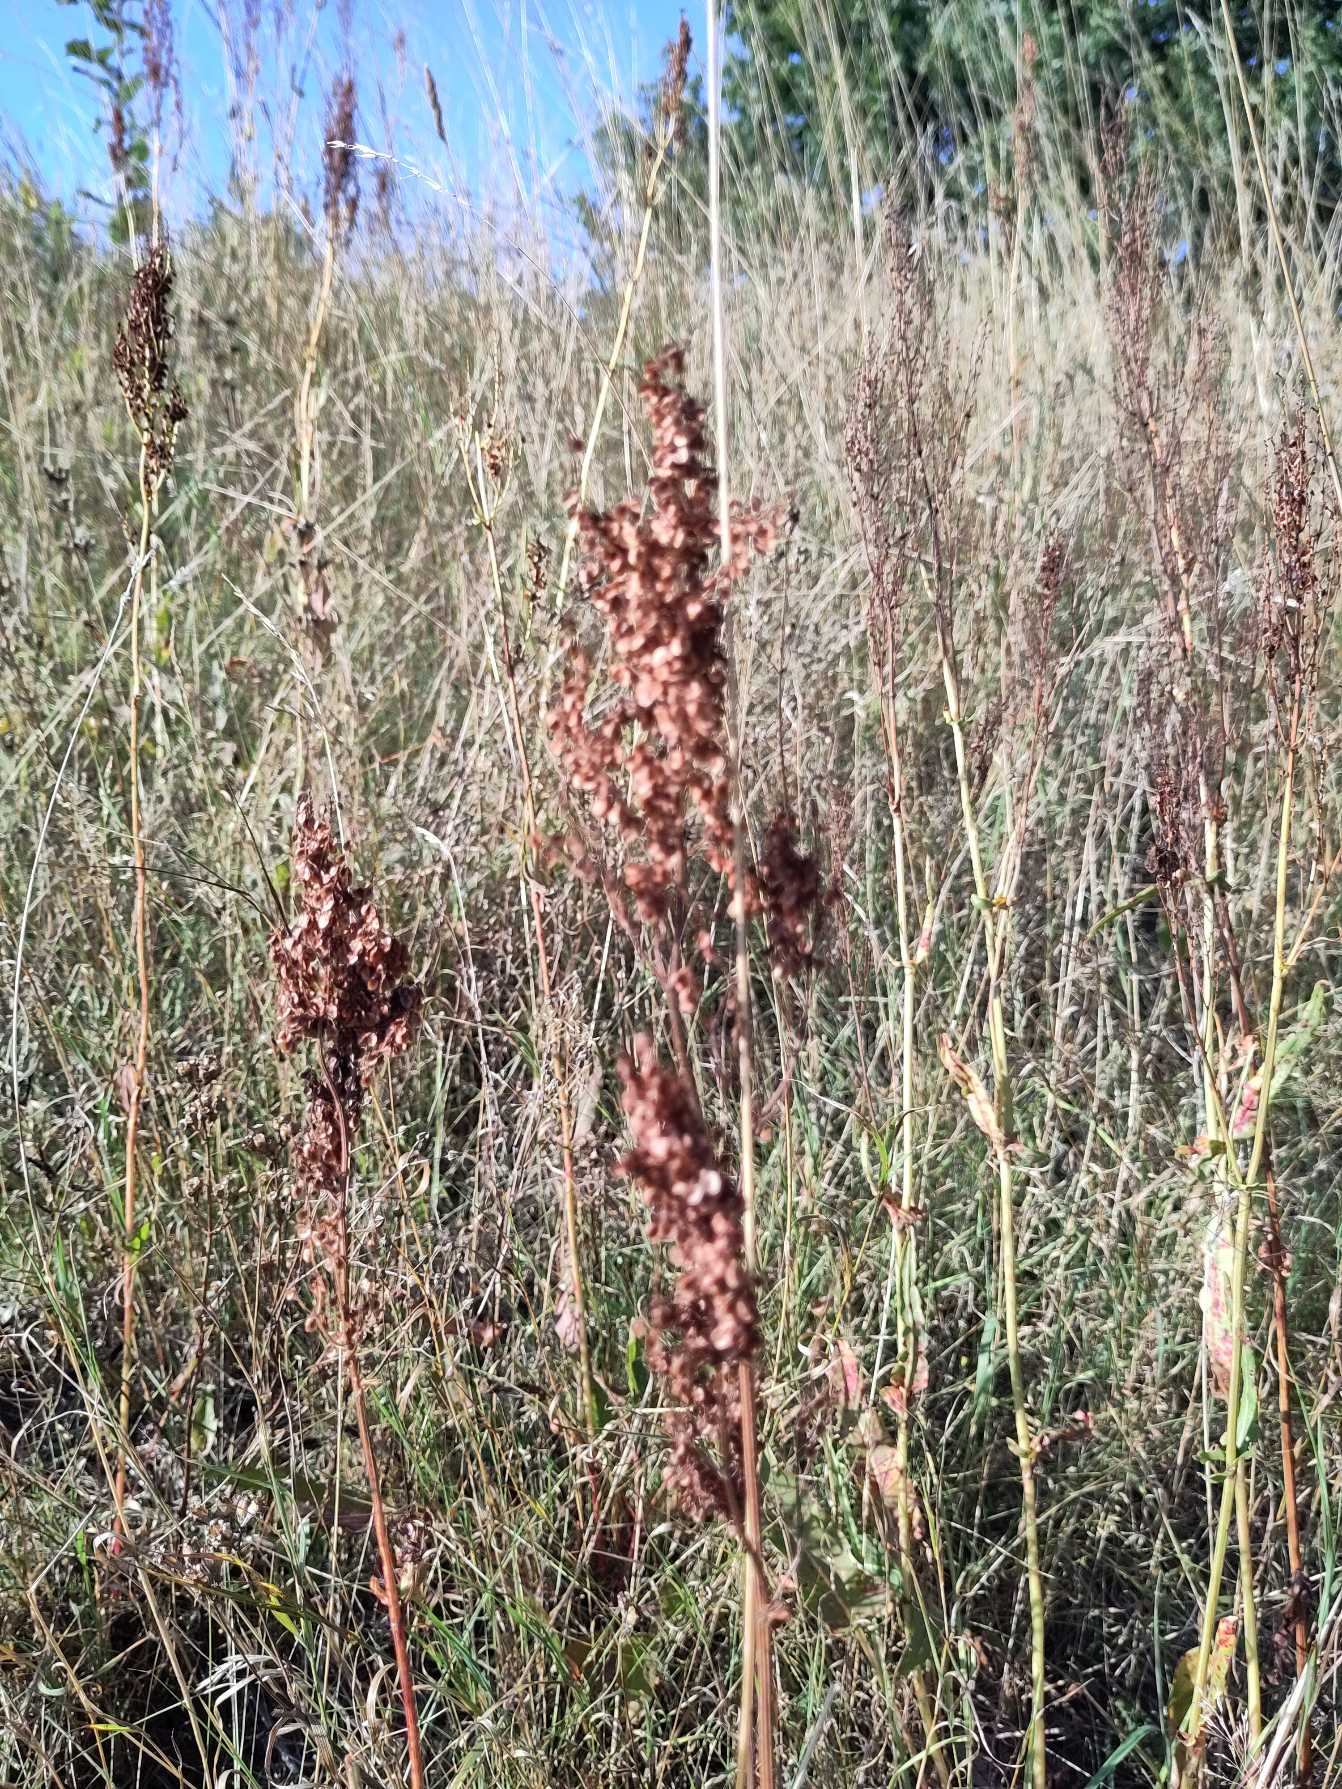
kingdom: Plantae
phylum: Tracheophyta
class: Magnoliopsida
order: Caryophyllales
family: Polygonaceae
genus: Rumex
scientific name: Rumex thyrsiflorus
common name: Dusk-syre
